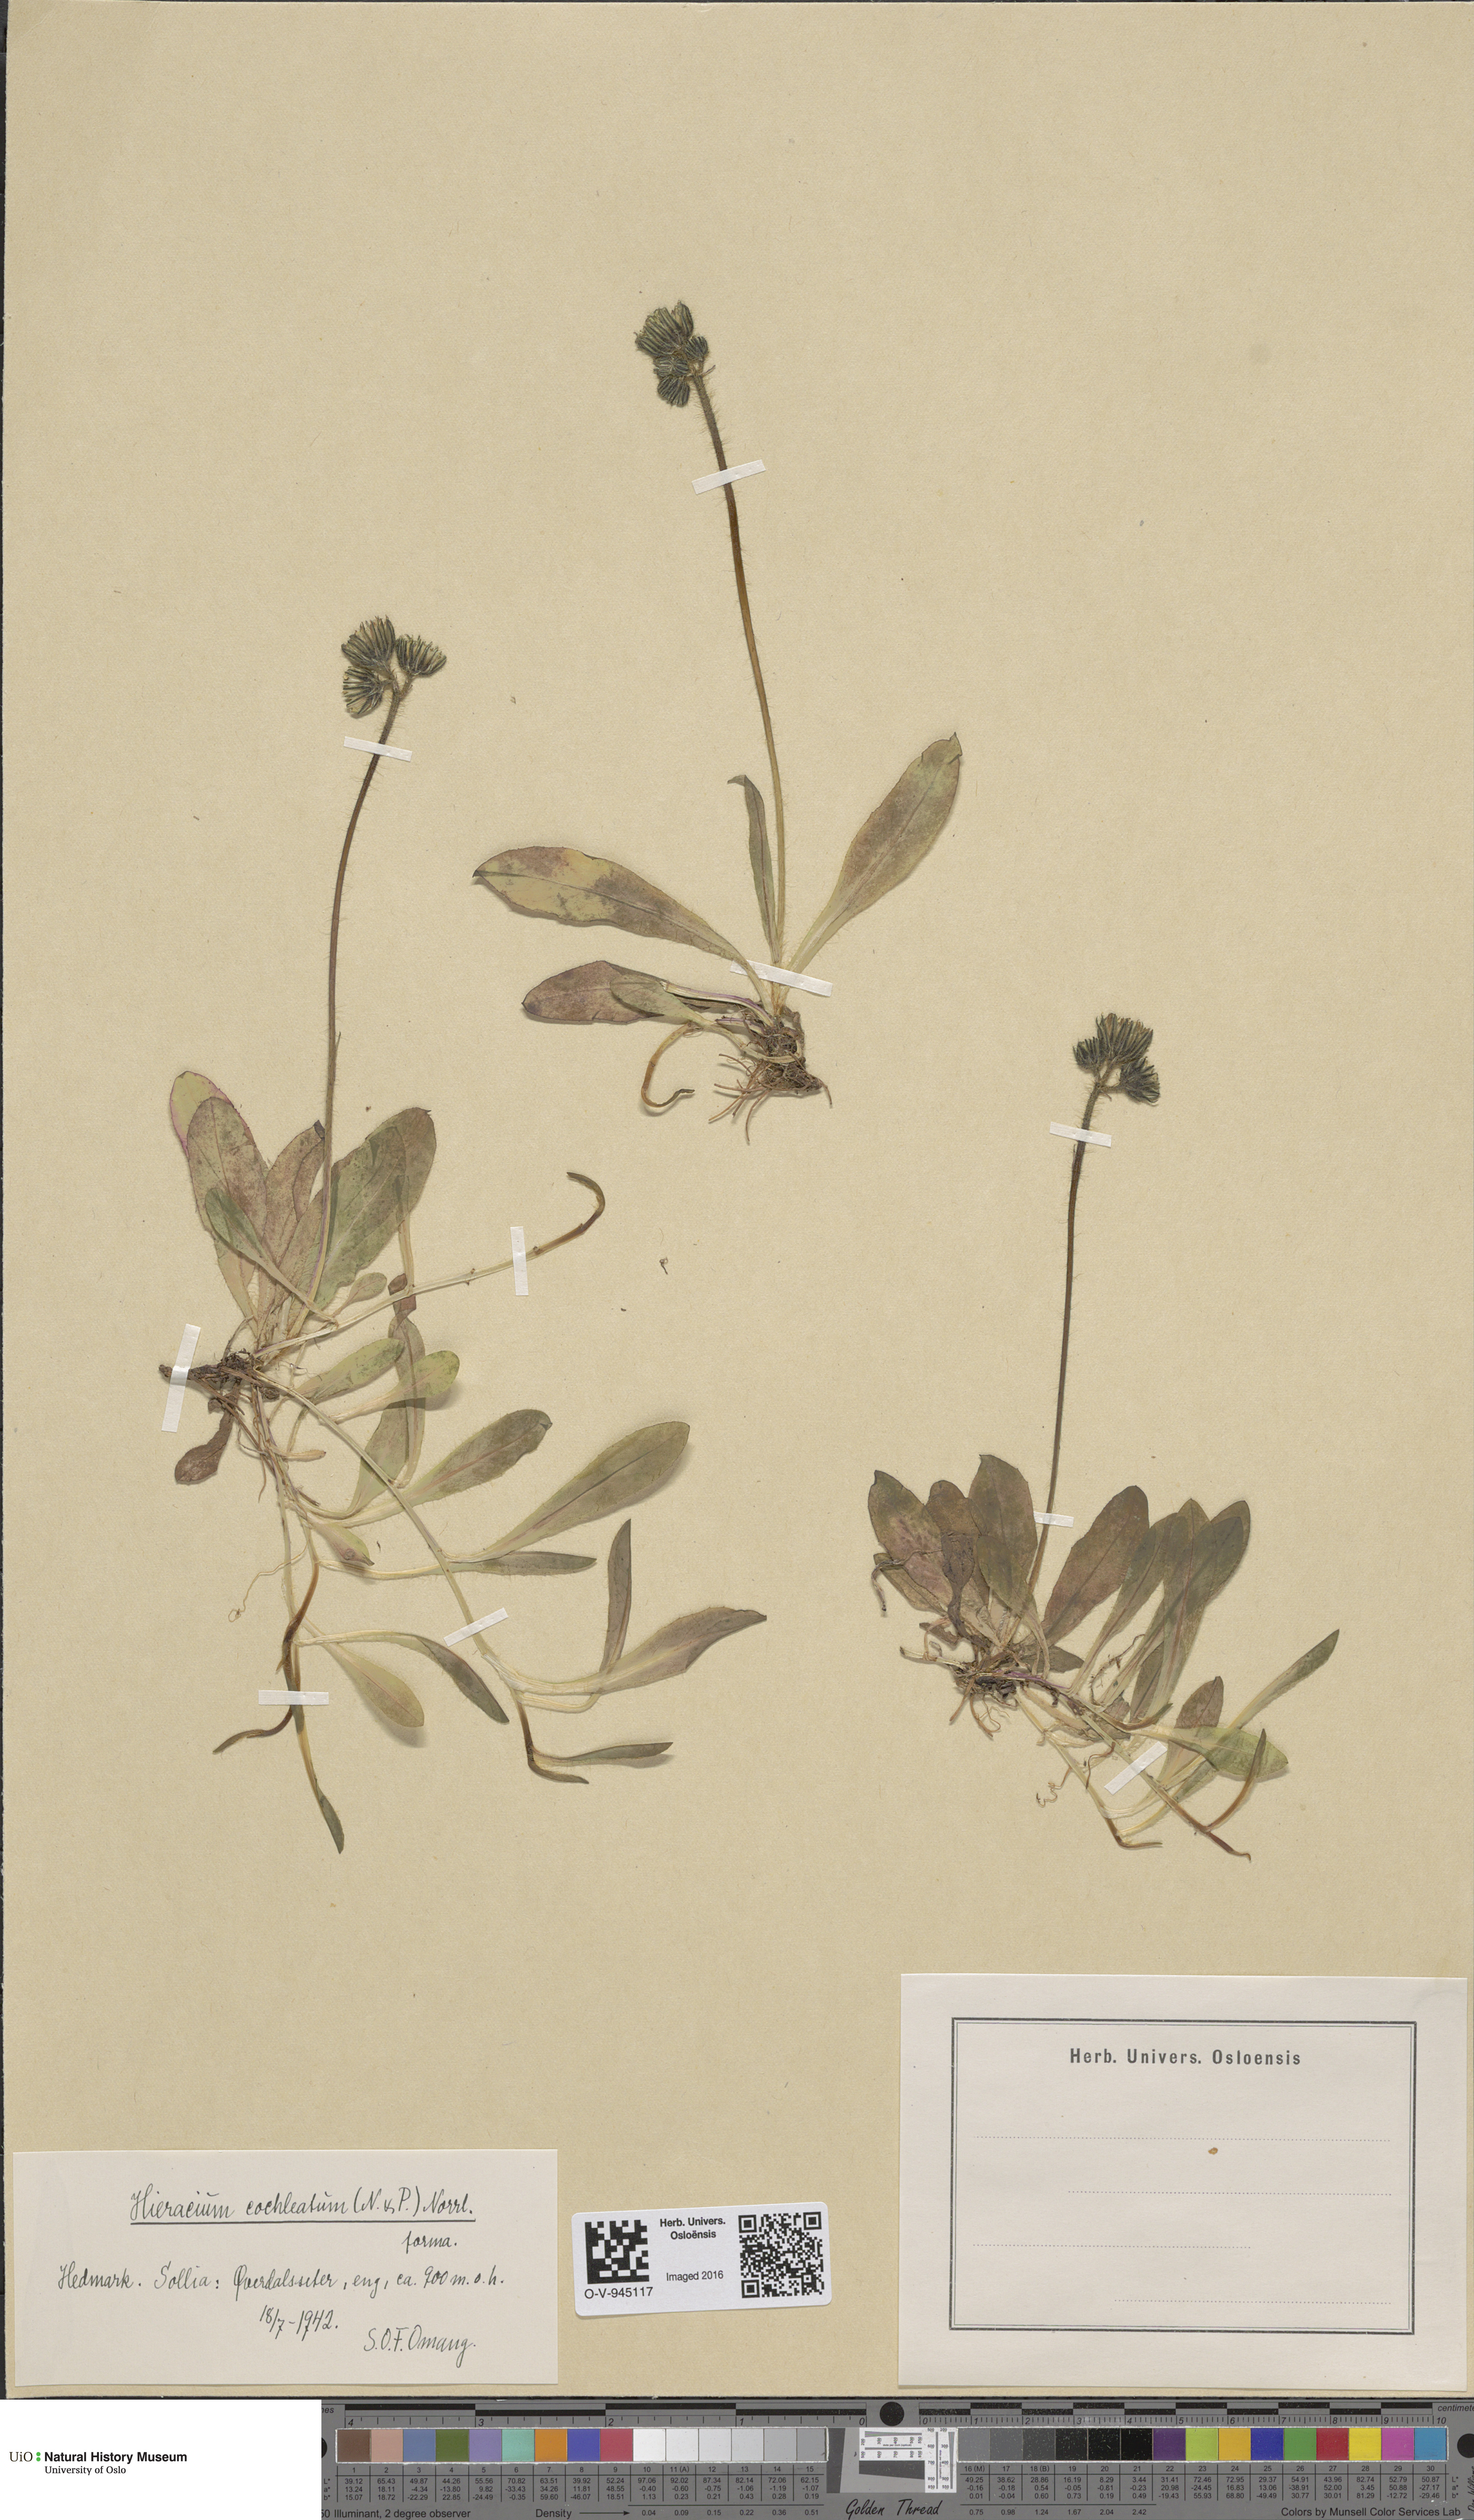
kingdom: Plantae
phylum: Tracheophyta
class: Magnoliopsida
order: Asterales
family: Asteraceae
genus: Pilosella
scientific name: Pilosella floribunda
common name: Glaucous hawkweed
